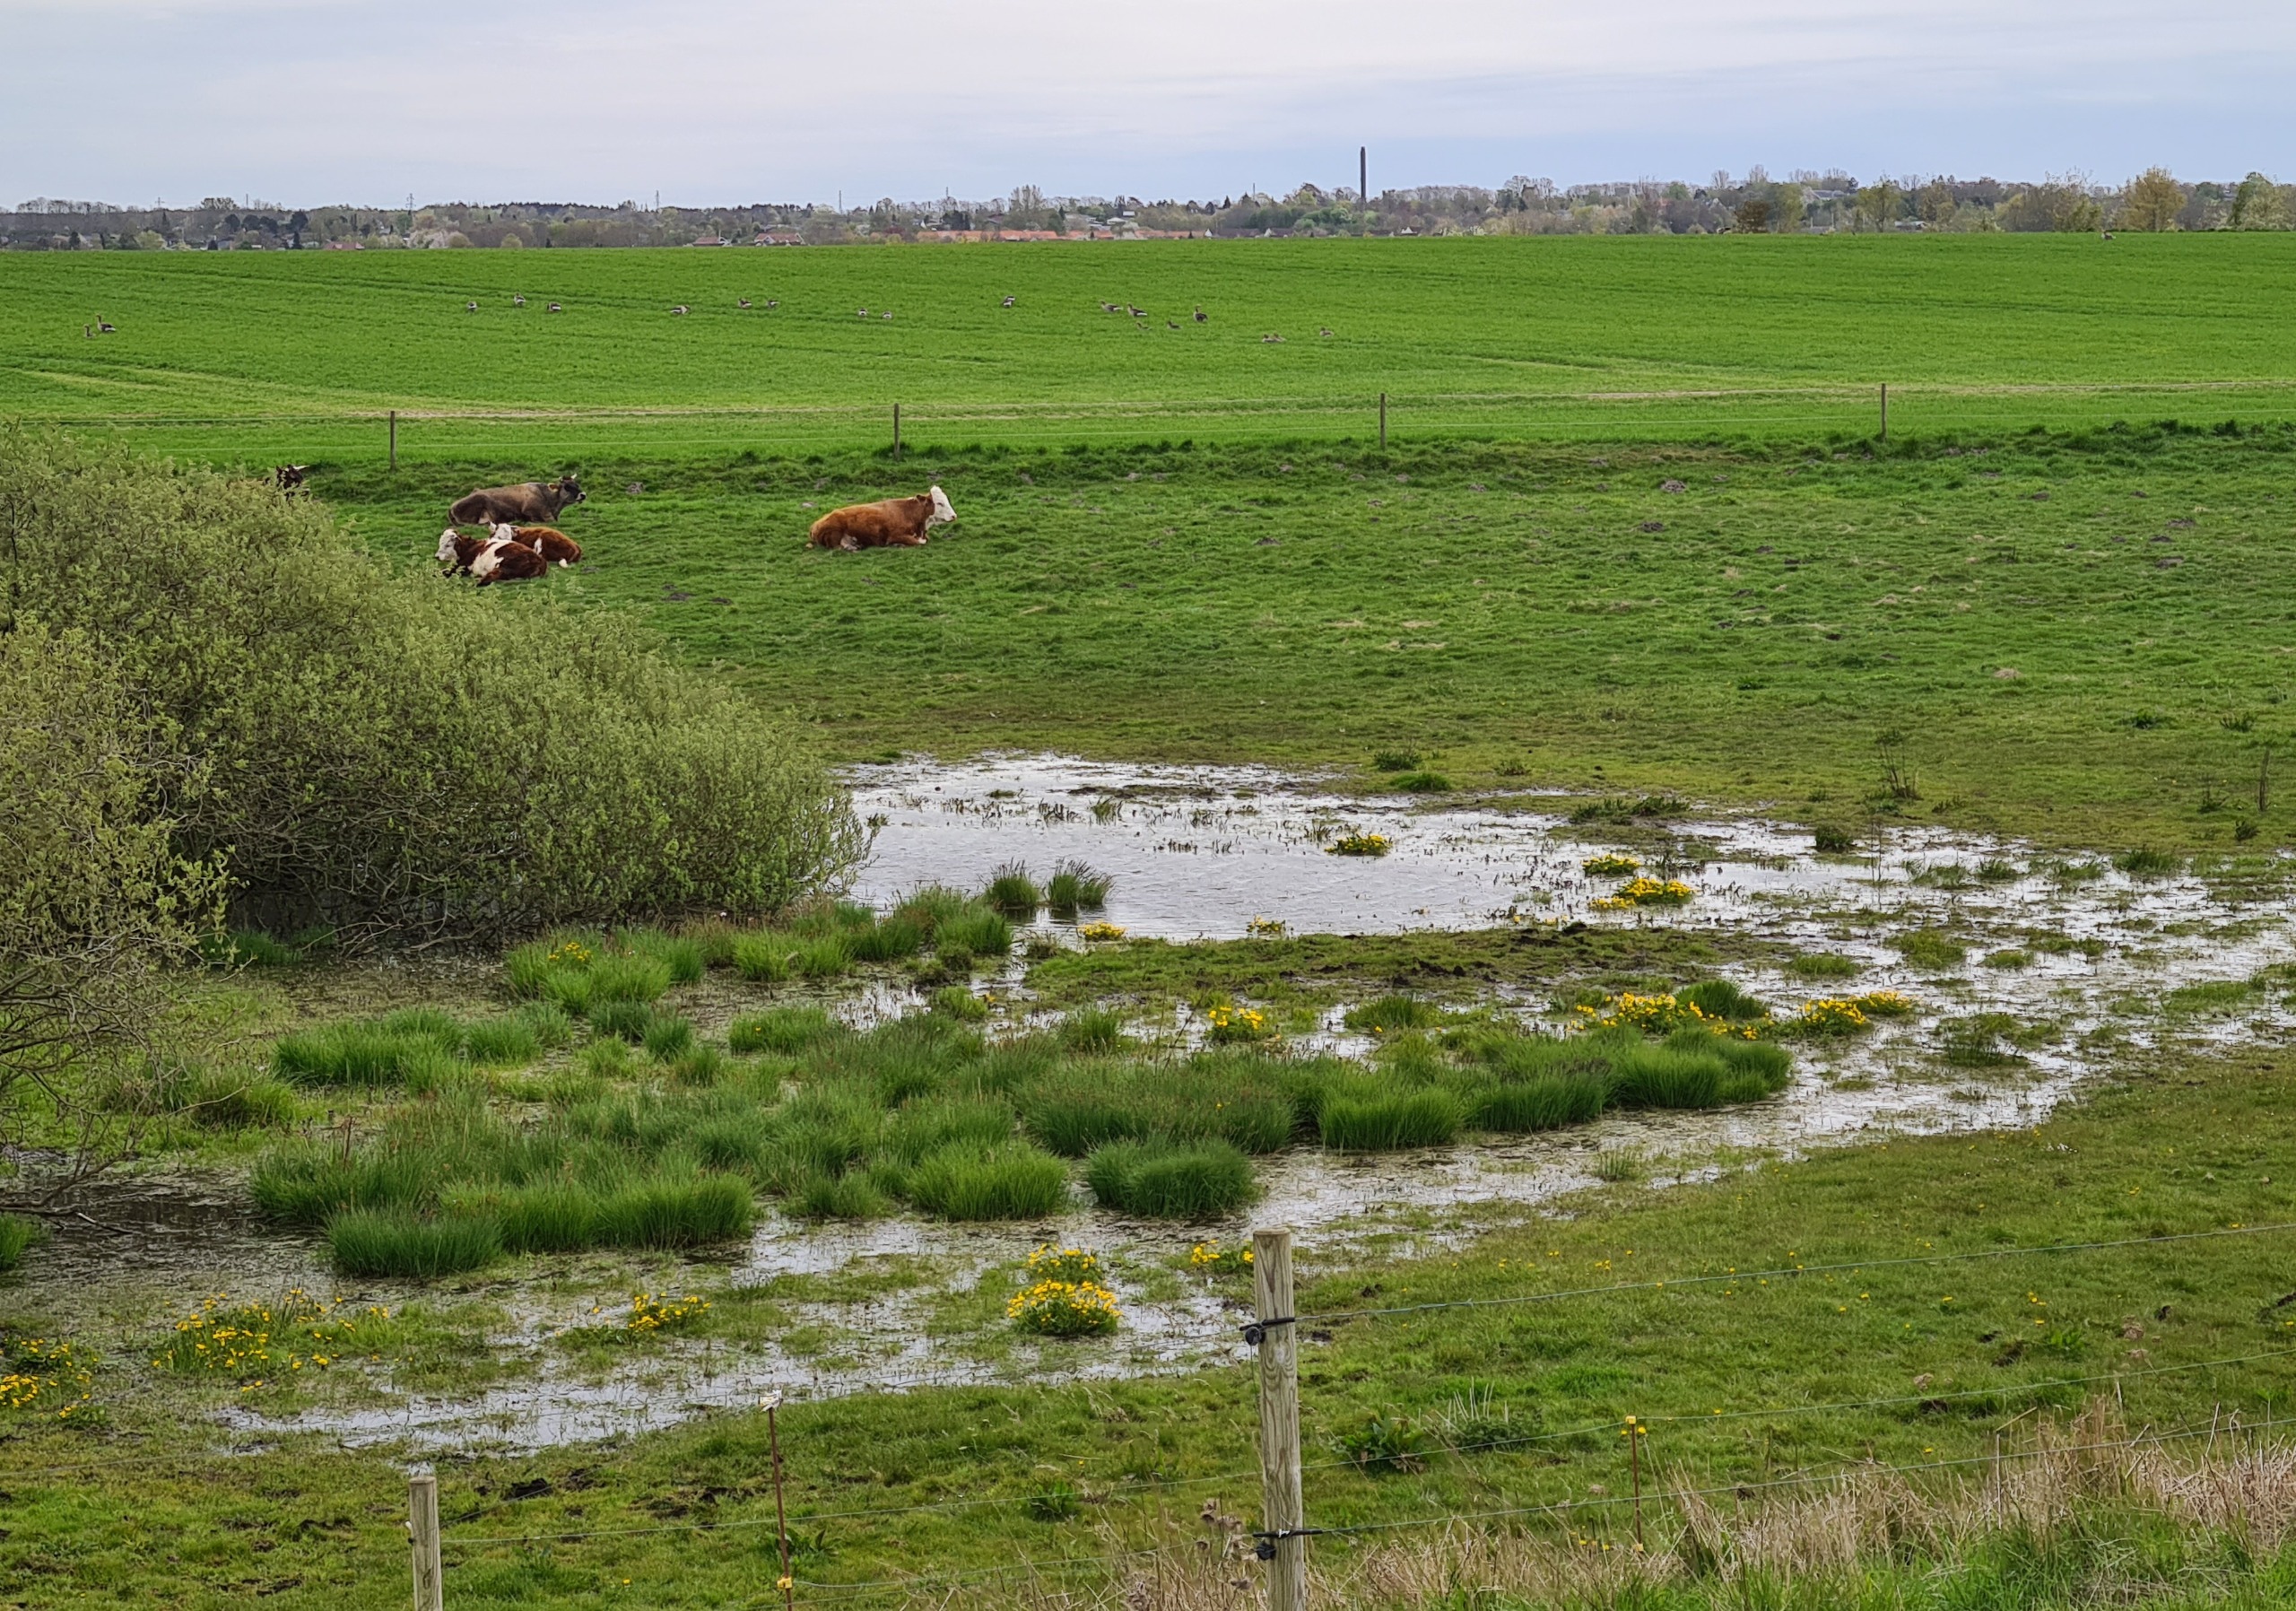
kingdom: Plantae
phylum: Tracheophyta
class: Magnoliopsida
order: Ranunculales
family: Ranunculaceae
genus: Caltha
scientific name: Caltha palustris
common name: Eng-kabbeleje
